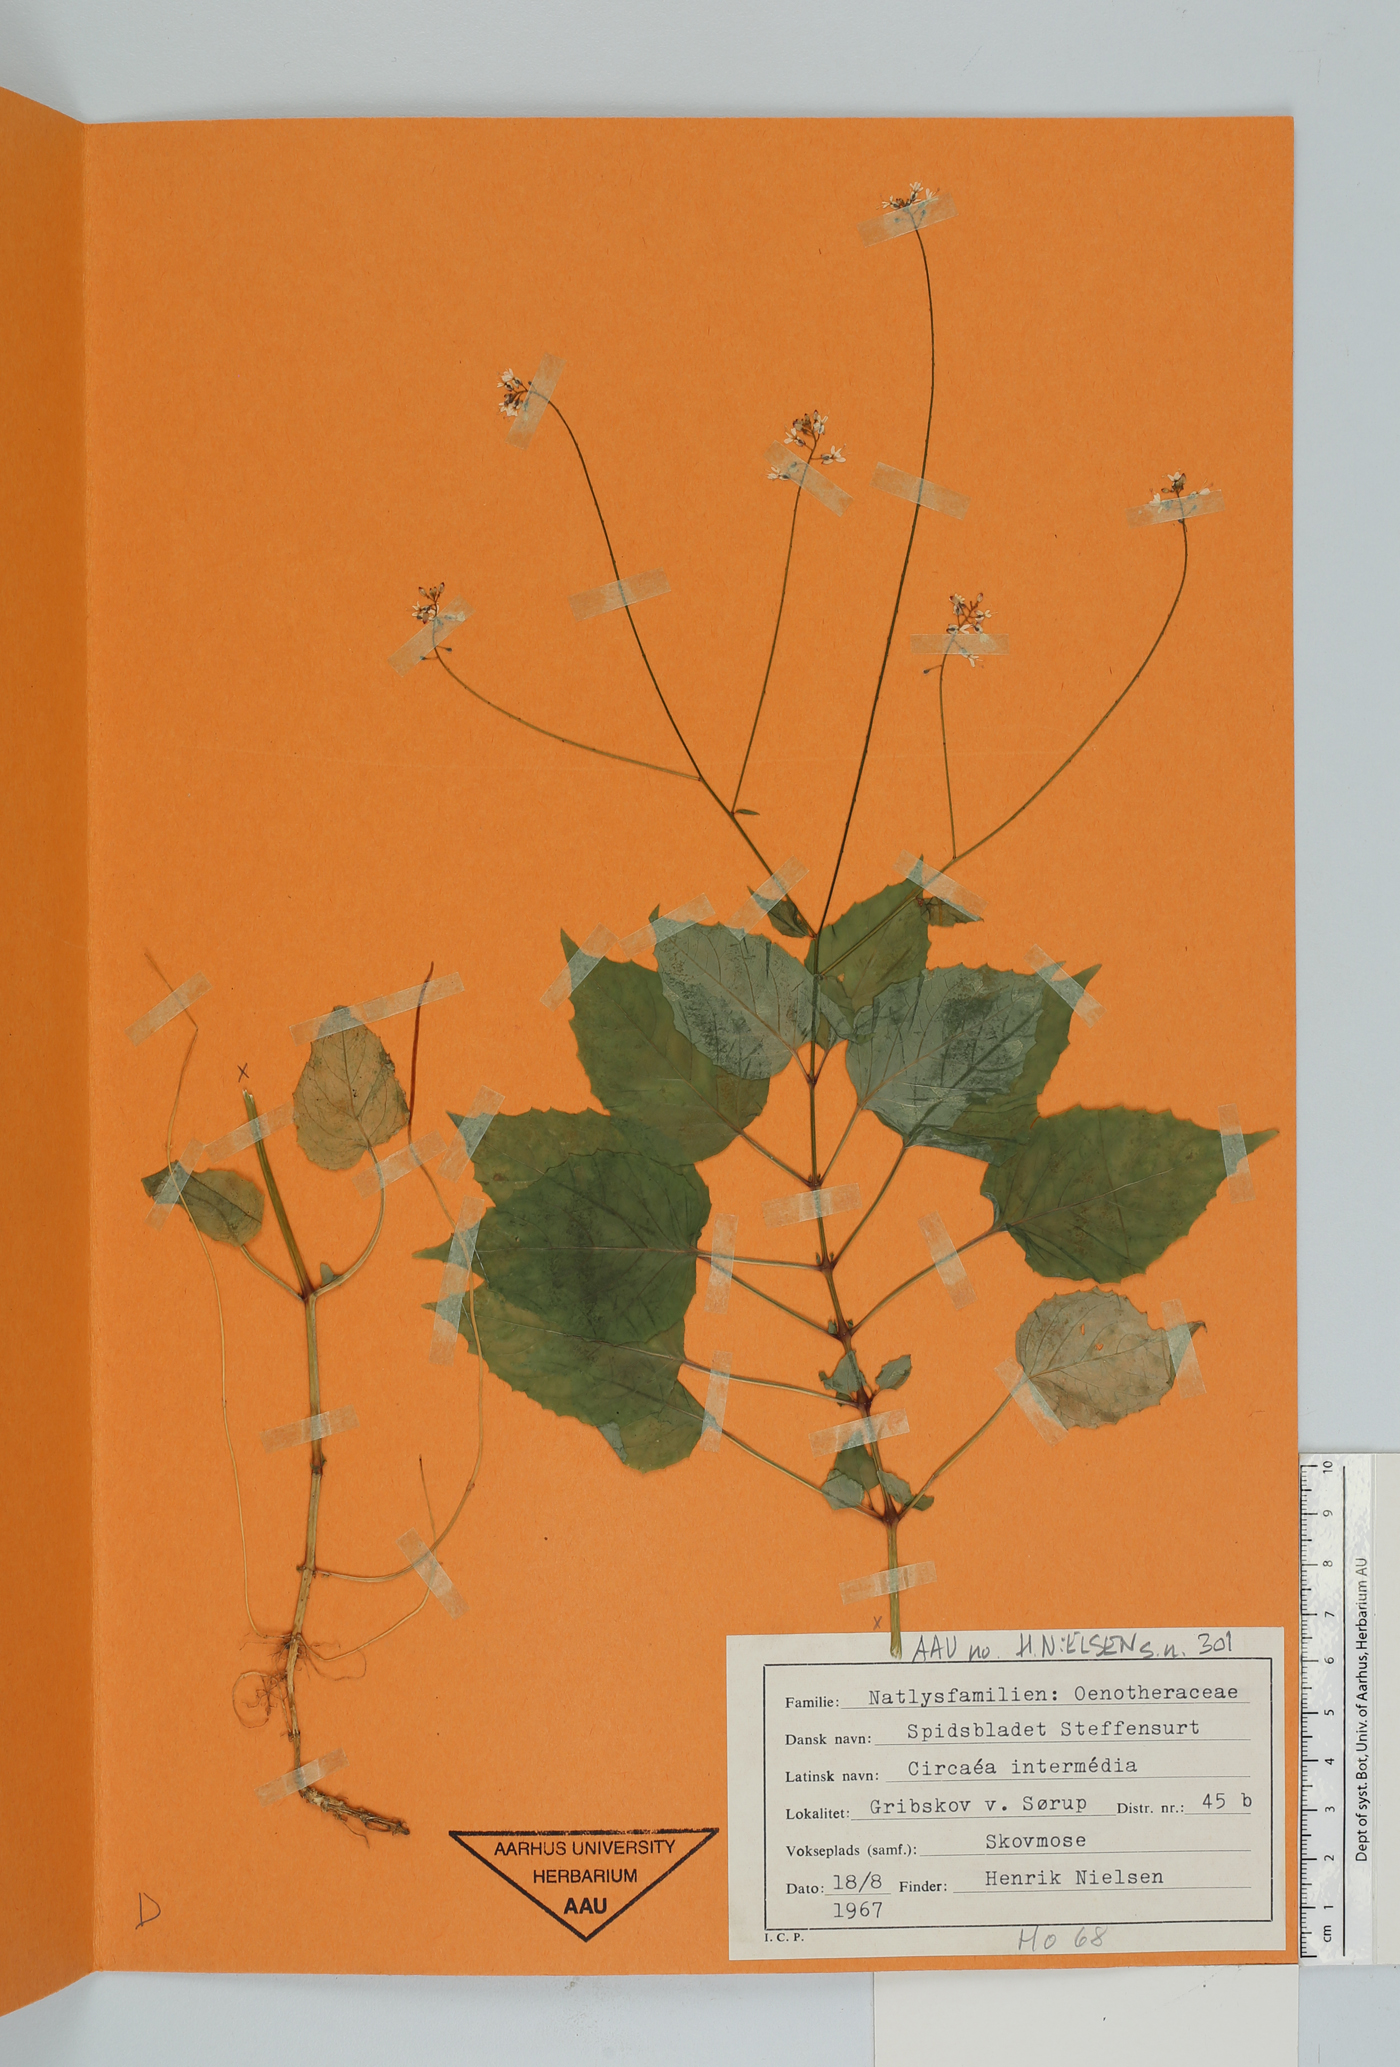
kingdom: Plantae
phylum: Tracheophyta
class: Magnoliopsida
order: Myrtales
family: Onagraceae
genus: Circaea
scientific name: Circaea intermedia
